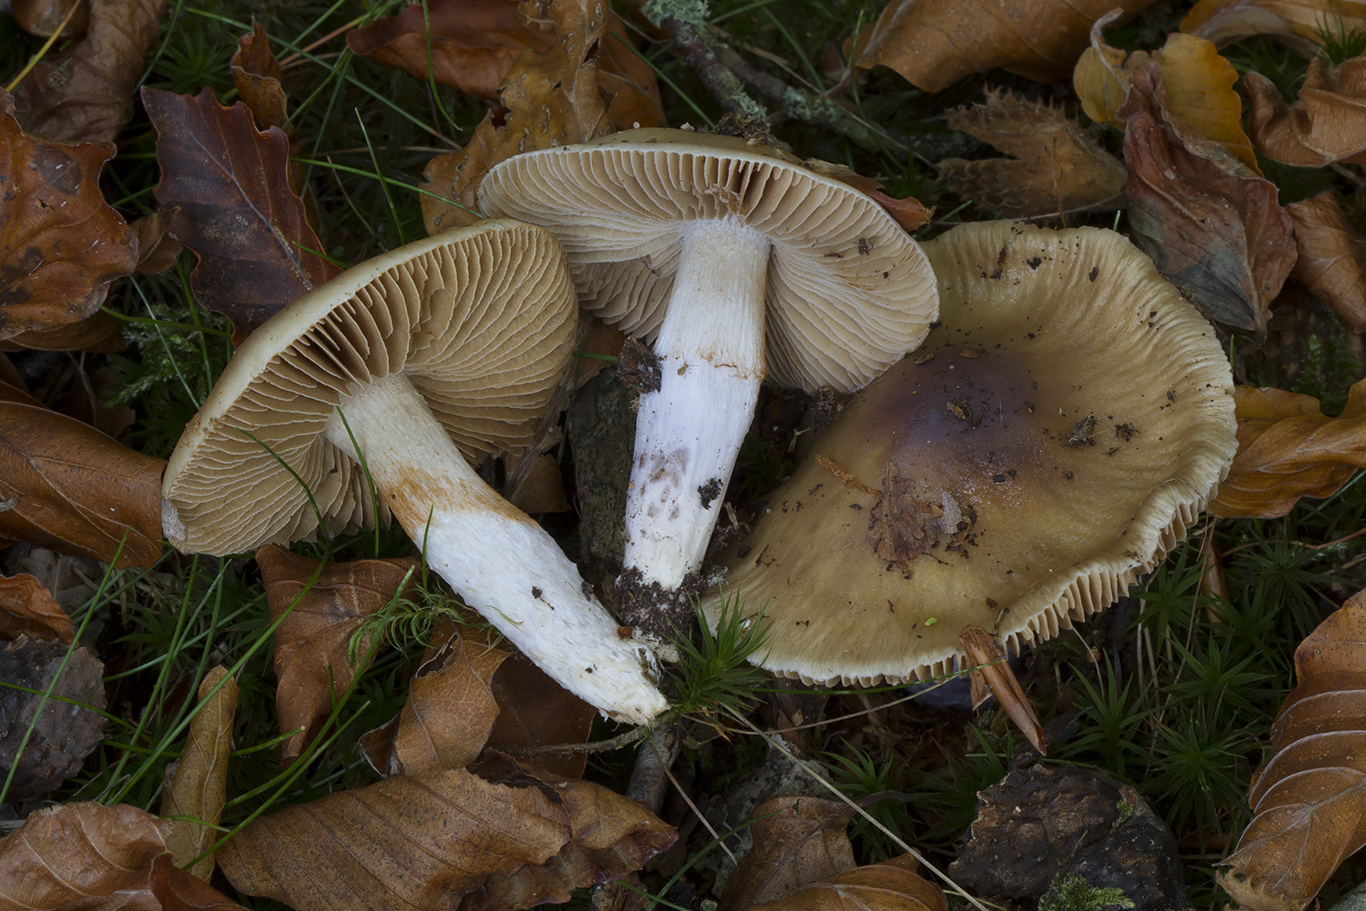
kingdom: Fungi
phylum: Basidiomycota
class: Agaricomycetes
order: Agaricales
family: Cortinariaceae
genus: Cortinarius
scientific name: Cortinarius livido-ochraceus
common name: halvhøj slørhat
